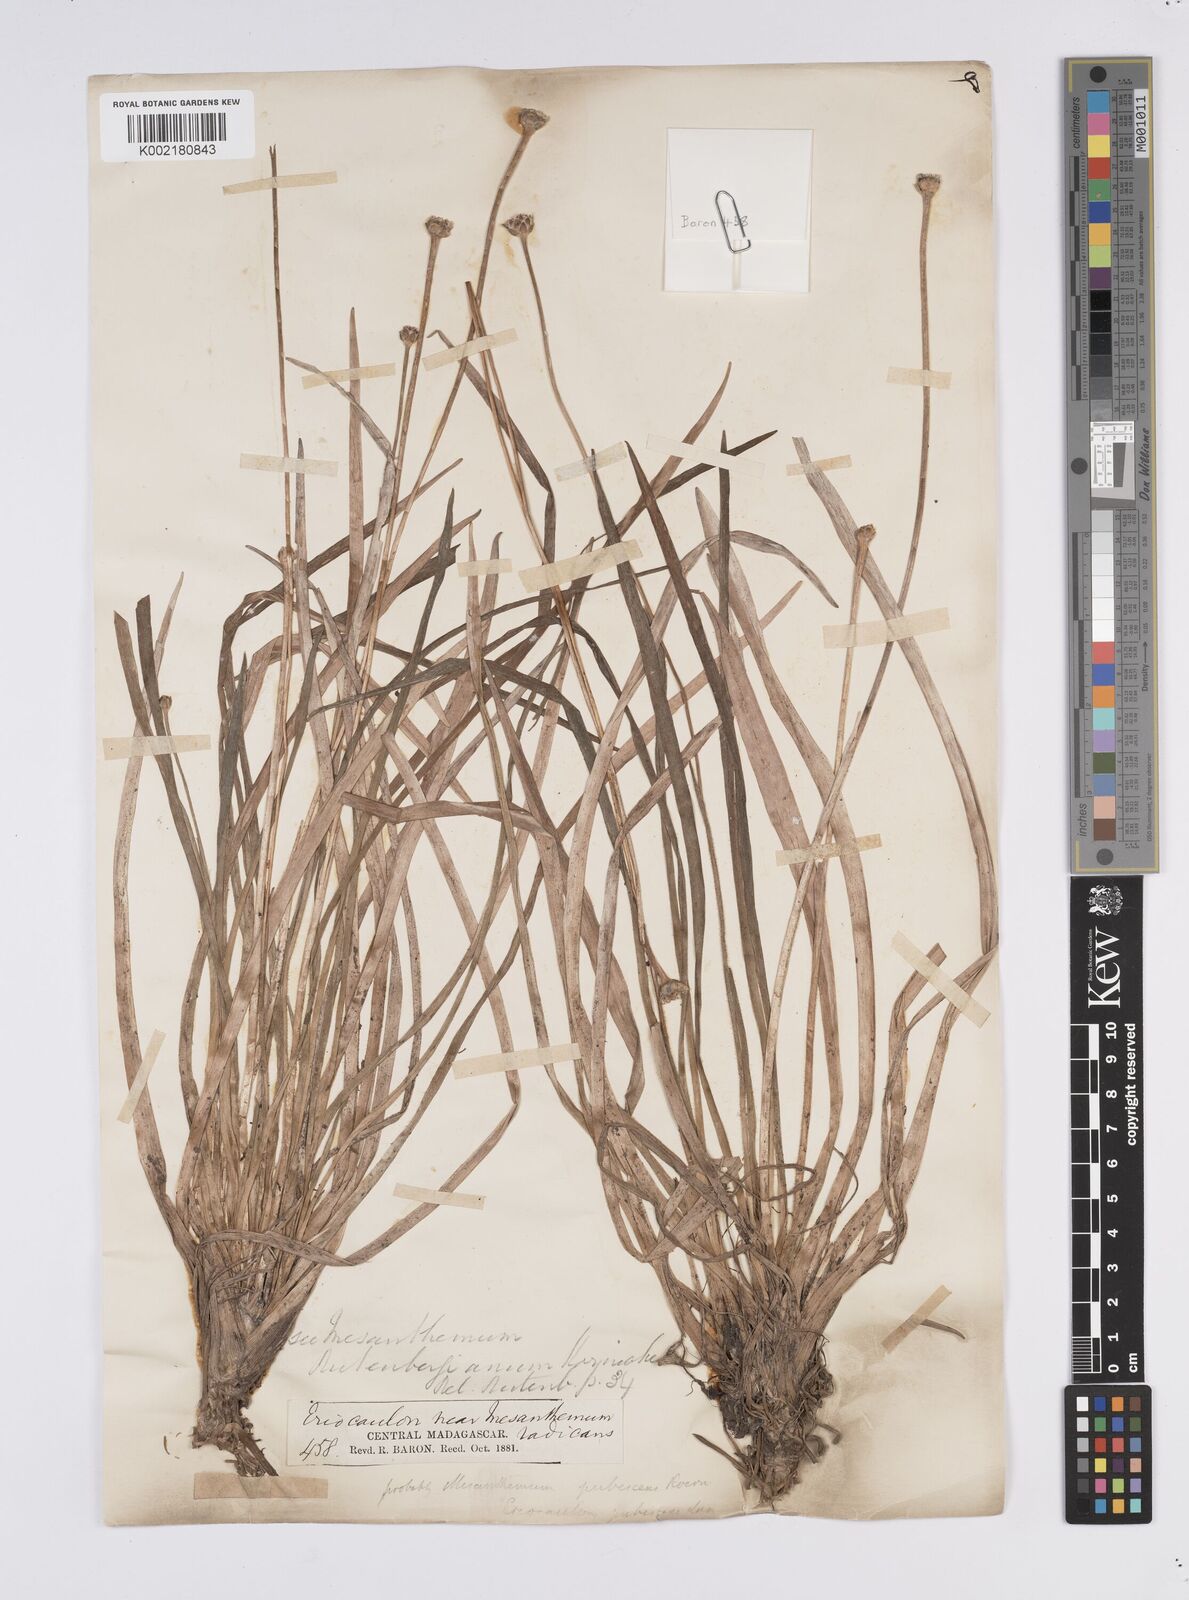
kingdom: Plantae
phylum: Tracheophyta
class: Liliopsida
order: Poales
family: Eriocaulaceae
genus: Mesanthemum
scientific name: Mesanthemum pubescens
